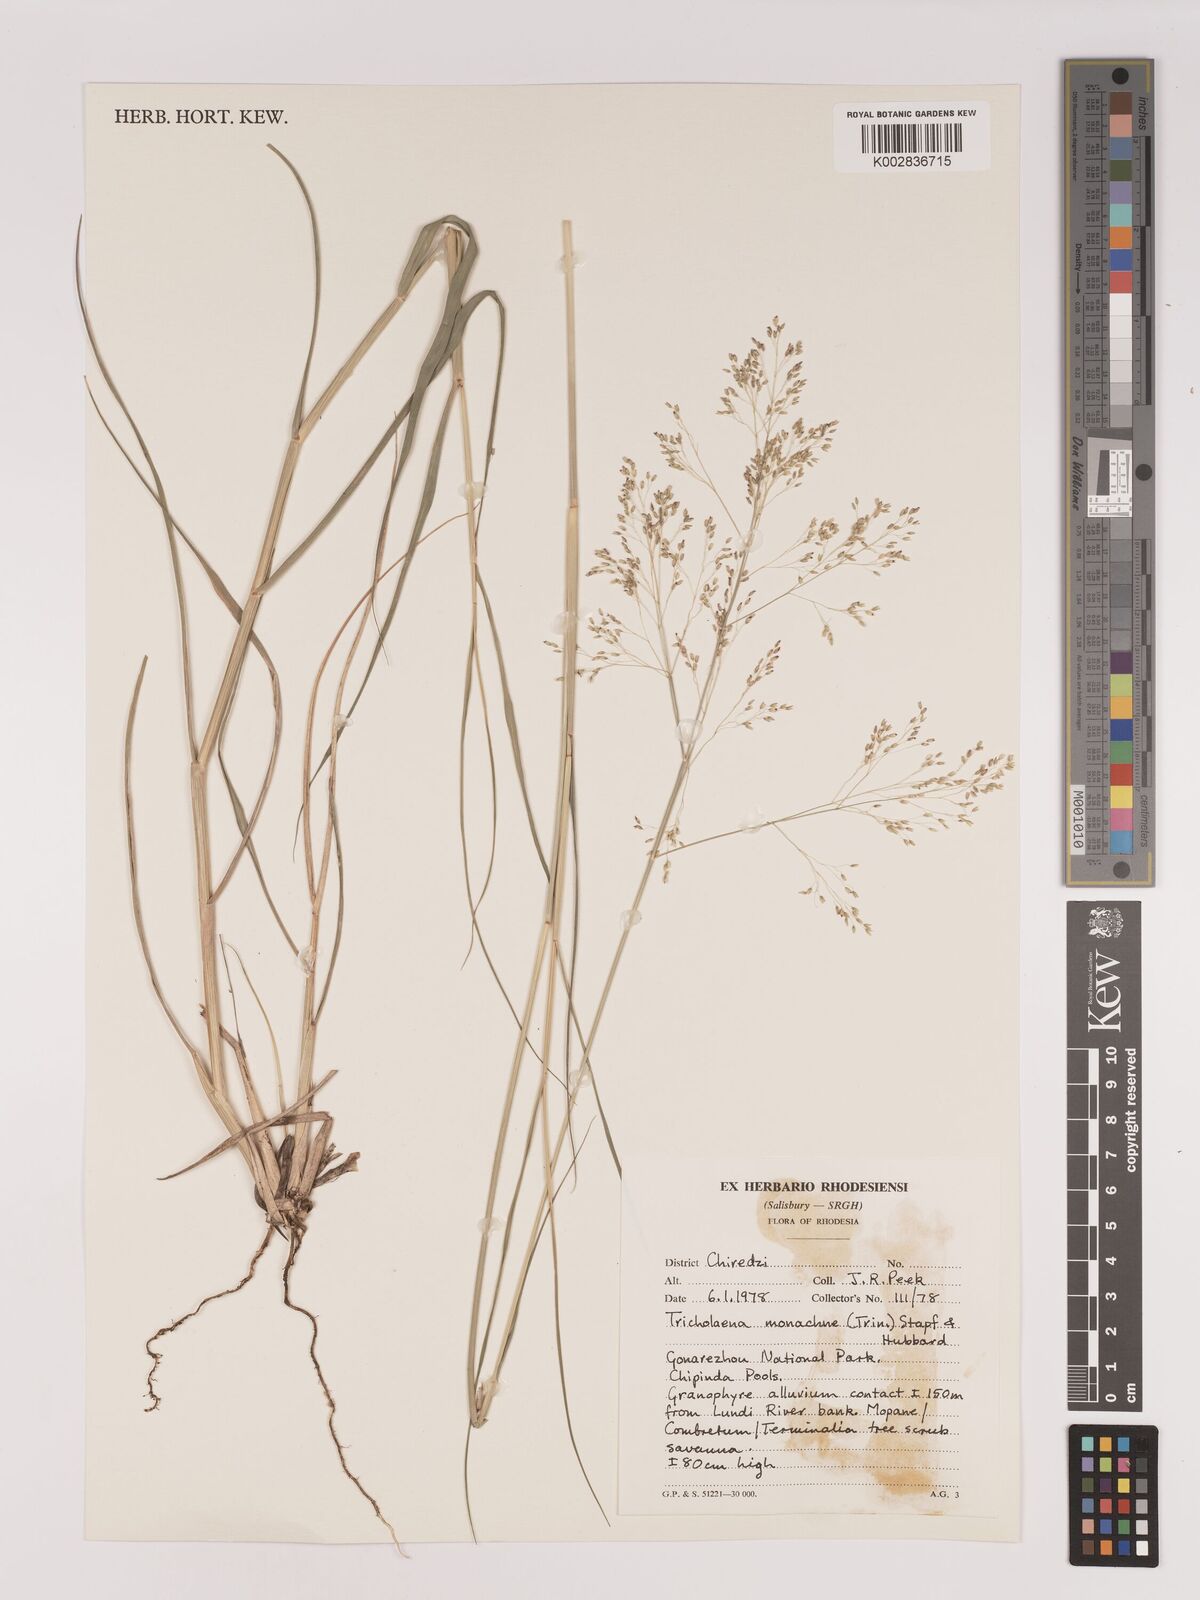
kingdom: Plantae
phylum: Tracheophyta
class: Liliopsida
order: Poales
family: Poaceae
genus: Tricholaena
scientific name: Tricholaena monachne
